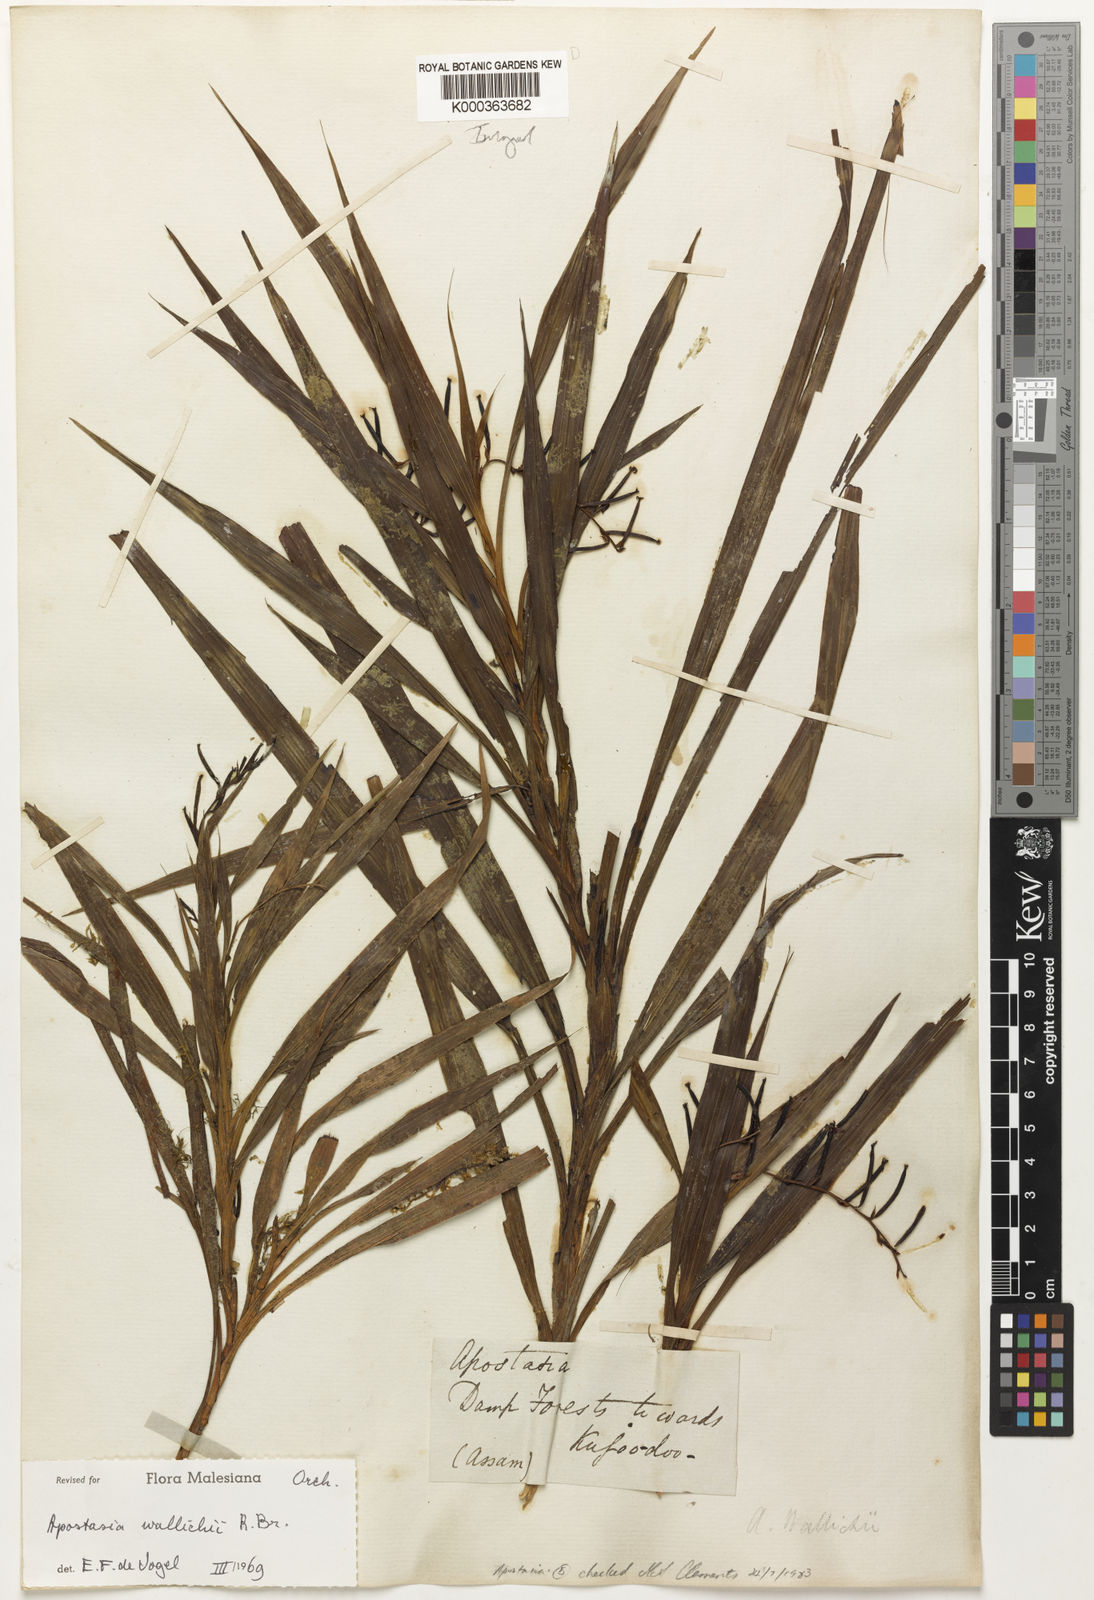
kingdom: Plantae
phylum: Tracheophyta
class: Liliopsida
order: Asparagales
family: Orchidaceae
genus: Apostasia
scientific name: Apostasia wallichii
